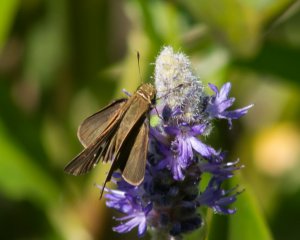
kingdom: Animalia
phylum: Arthropoda
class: Insecta
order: Lepidoptera
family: Hesperiidae
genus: Panoquina
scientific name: Panoquina ocola
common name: Ocola Skipper
